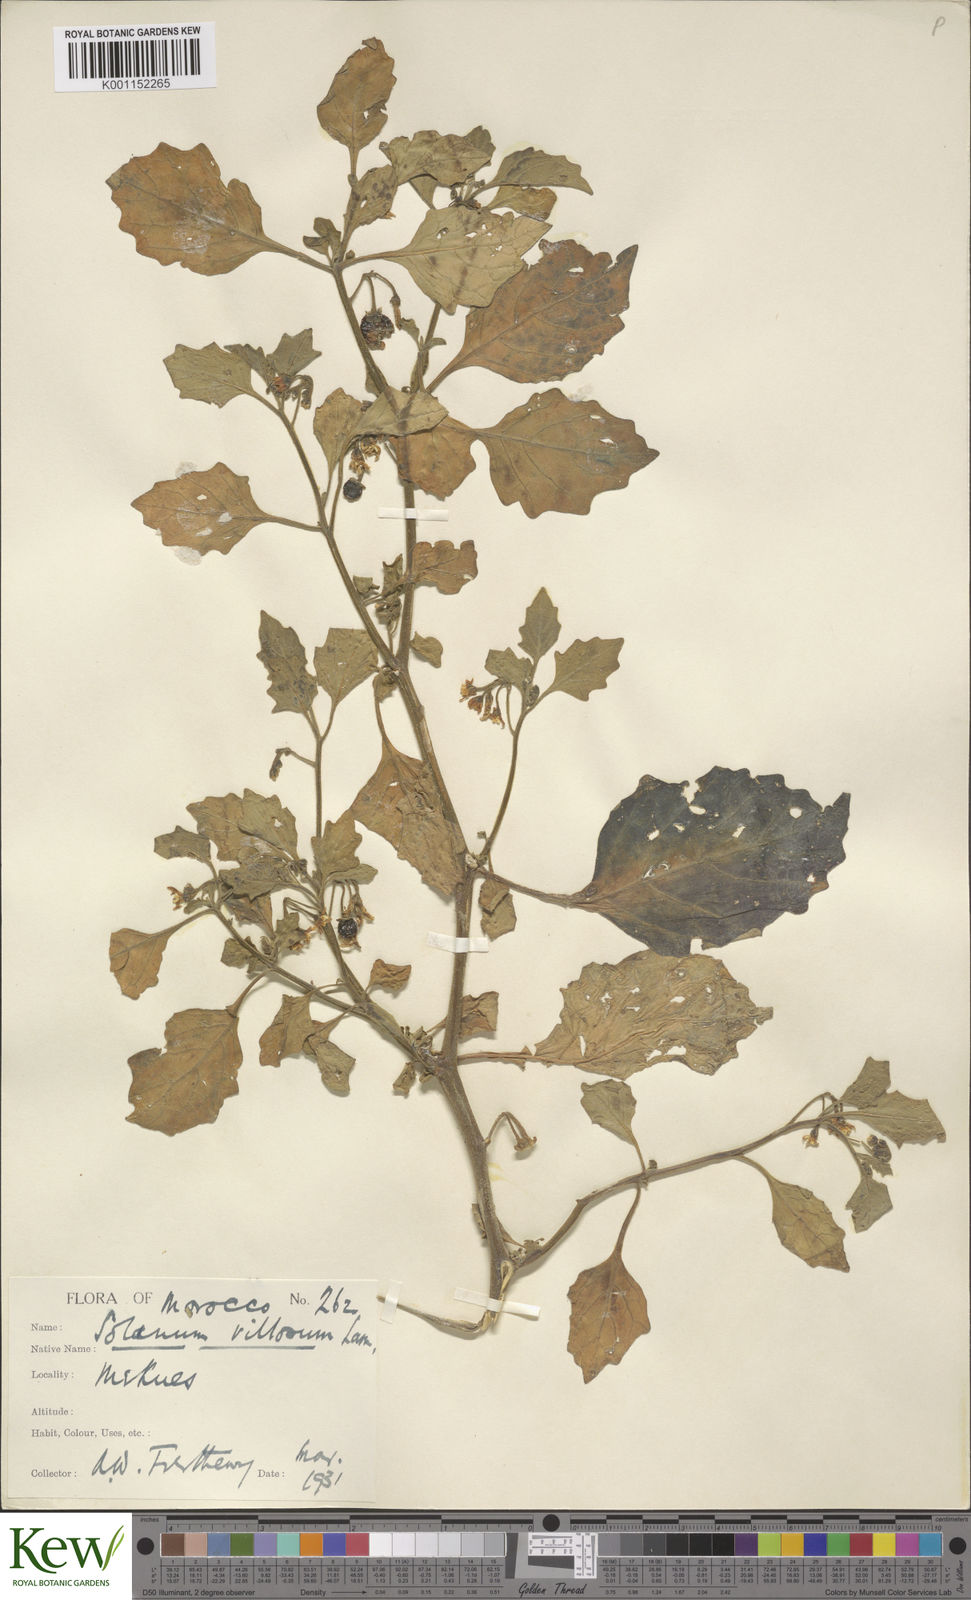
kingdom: Plantae
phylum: Tracheophyta
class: Magnoliopsida
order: Solanales
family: Solanaceae
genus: Solanum
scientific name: Solanum villosum
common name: Red nightshade
